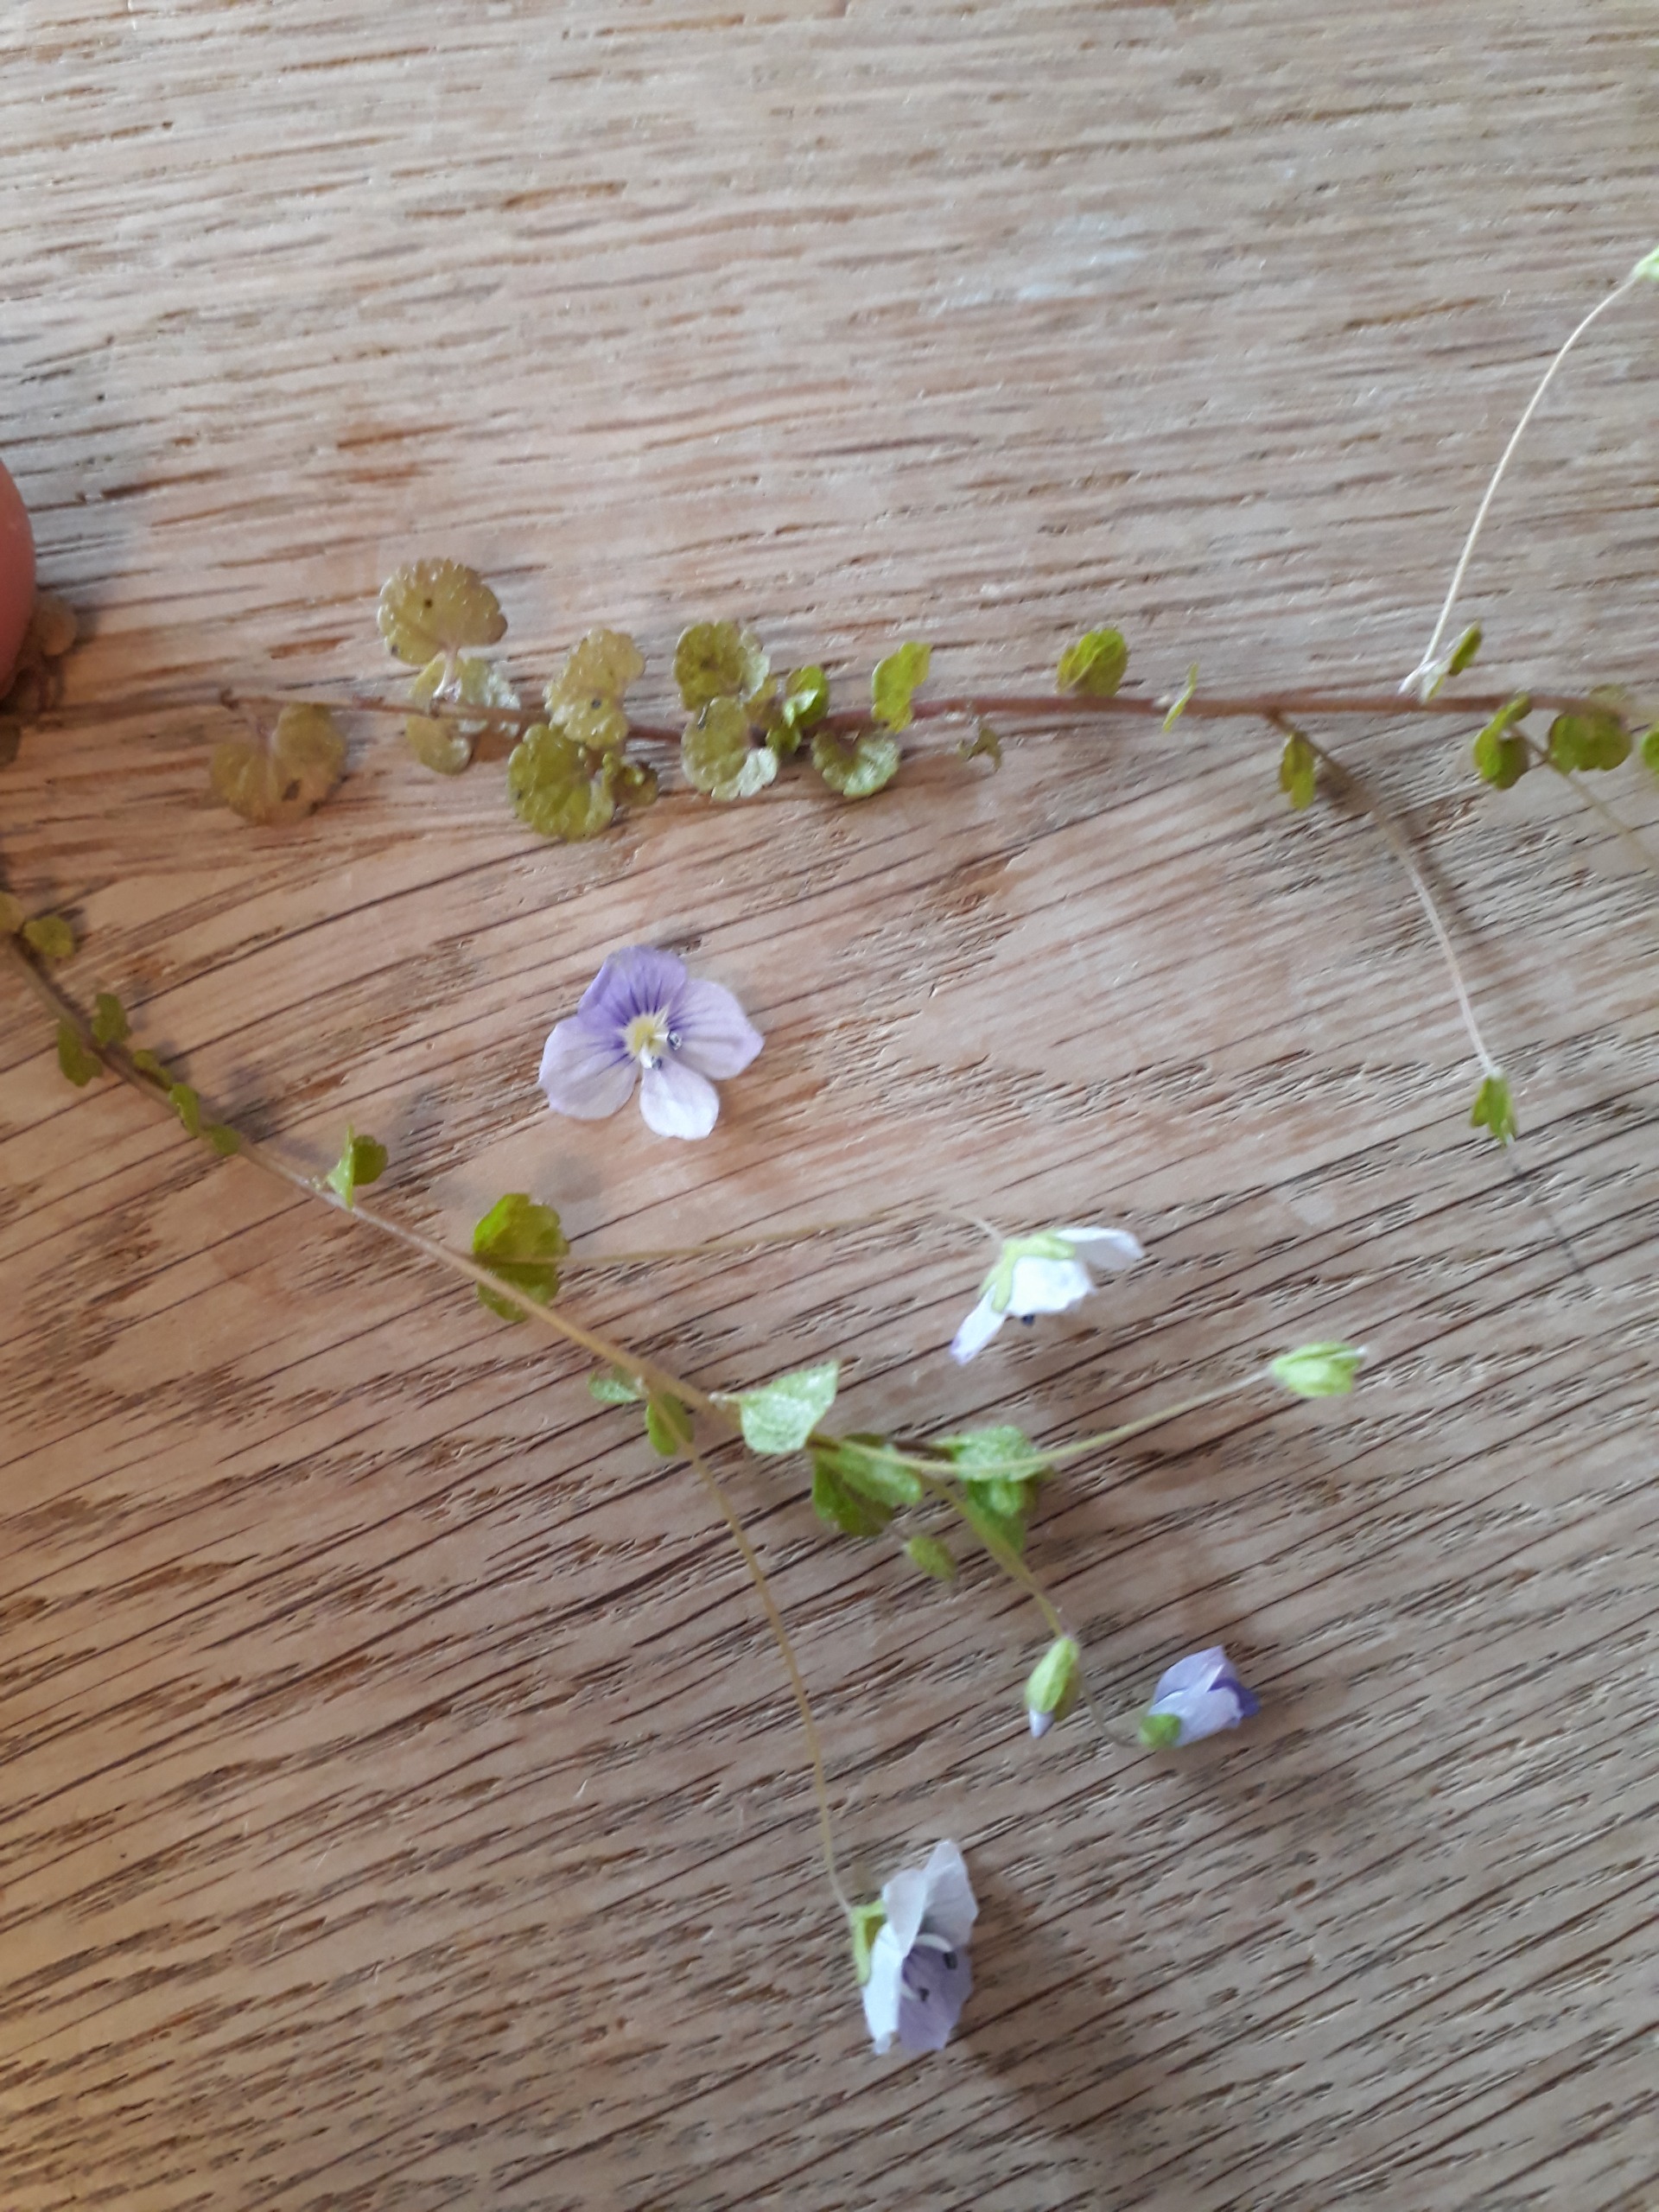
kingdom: Plantae
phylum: Tracheophyta
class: Magnoliopsida
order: Lamiales
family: Plantaginaceae
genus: Veronica
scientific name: Veronica filiformis
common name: Tråd-ærenpris
